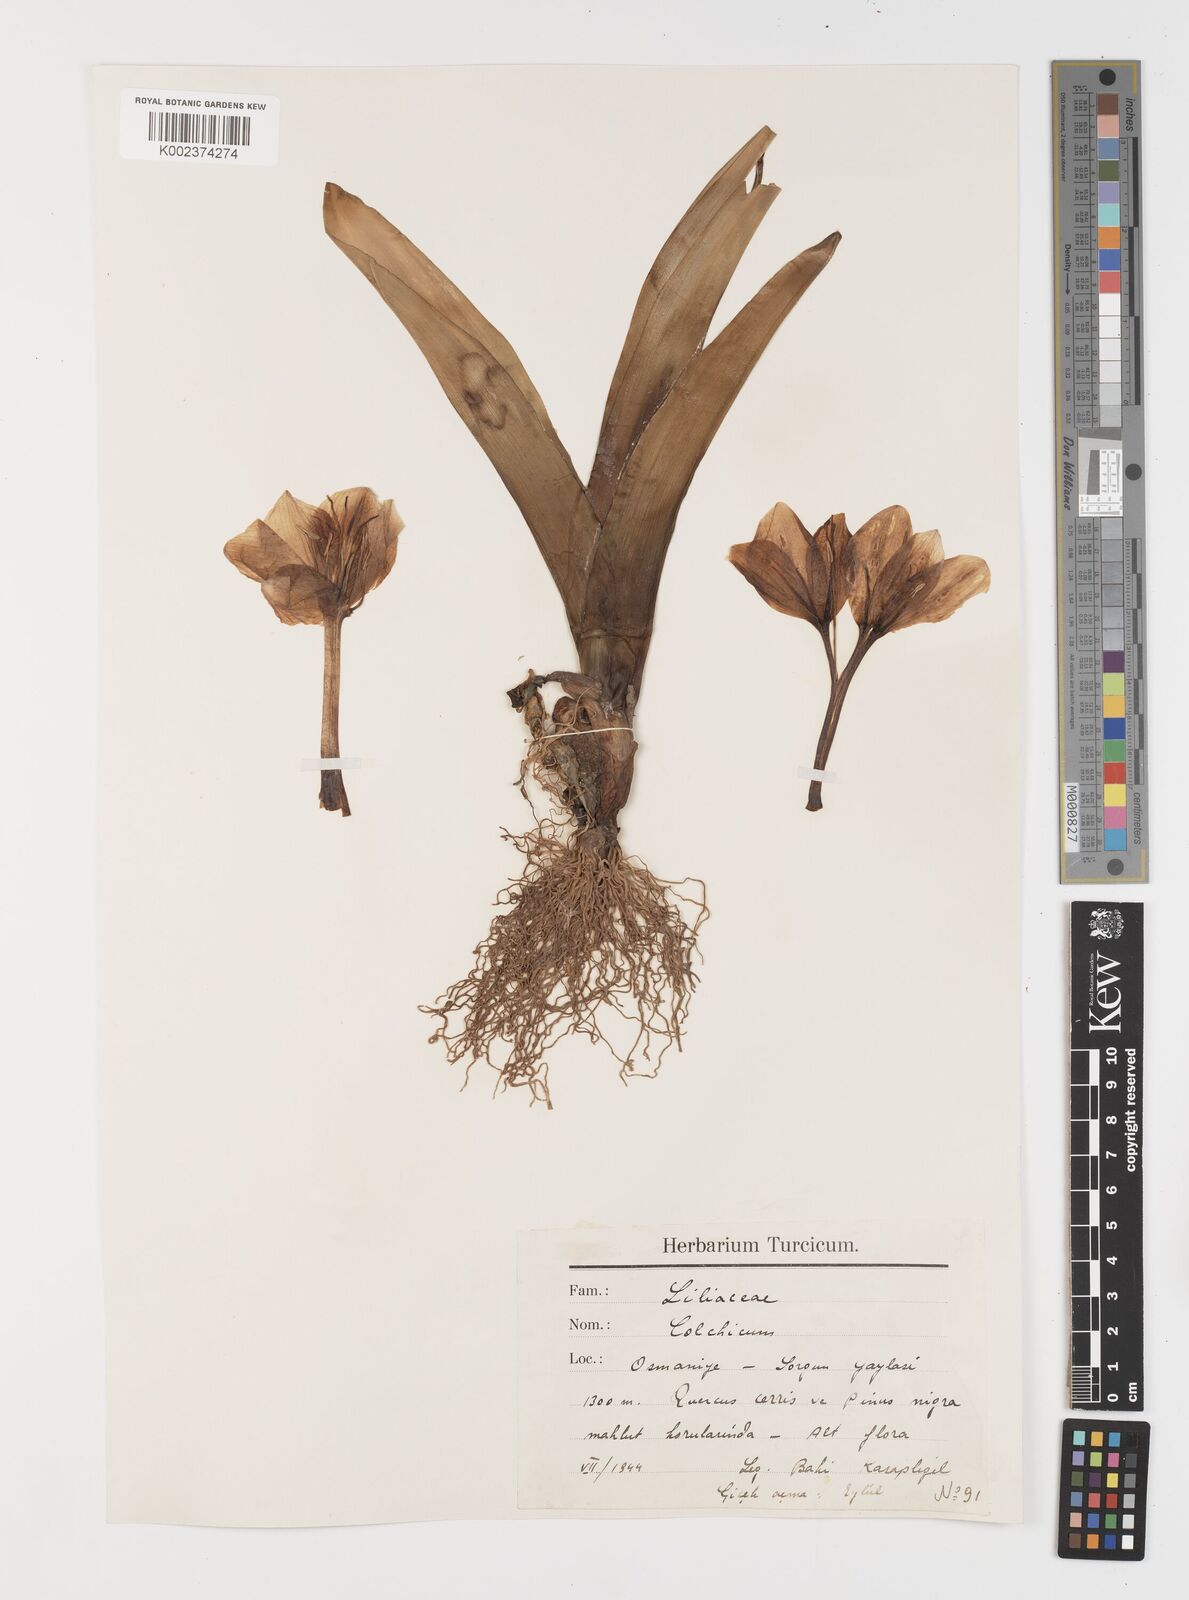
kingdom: Plantae
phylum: Tracheophyta
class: Liliopsida
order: Liliales
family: Colchicaceae
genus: Colchicum
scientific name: Colchicum
